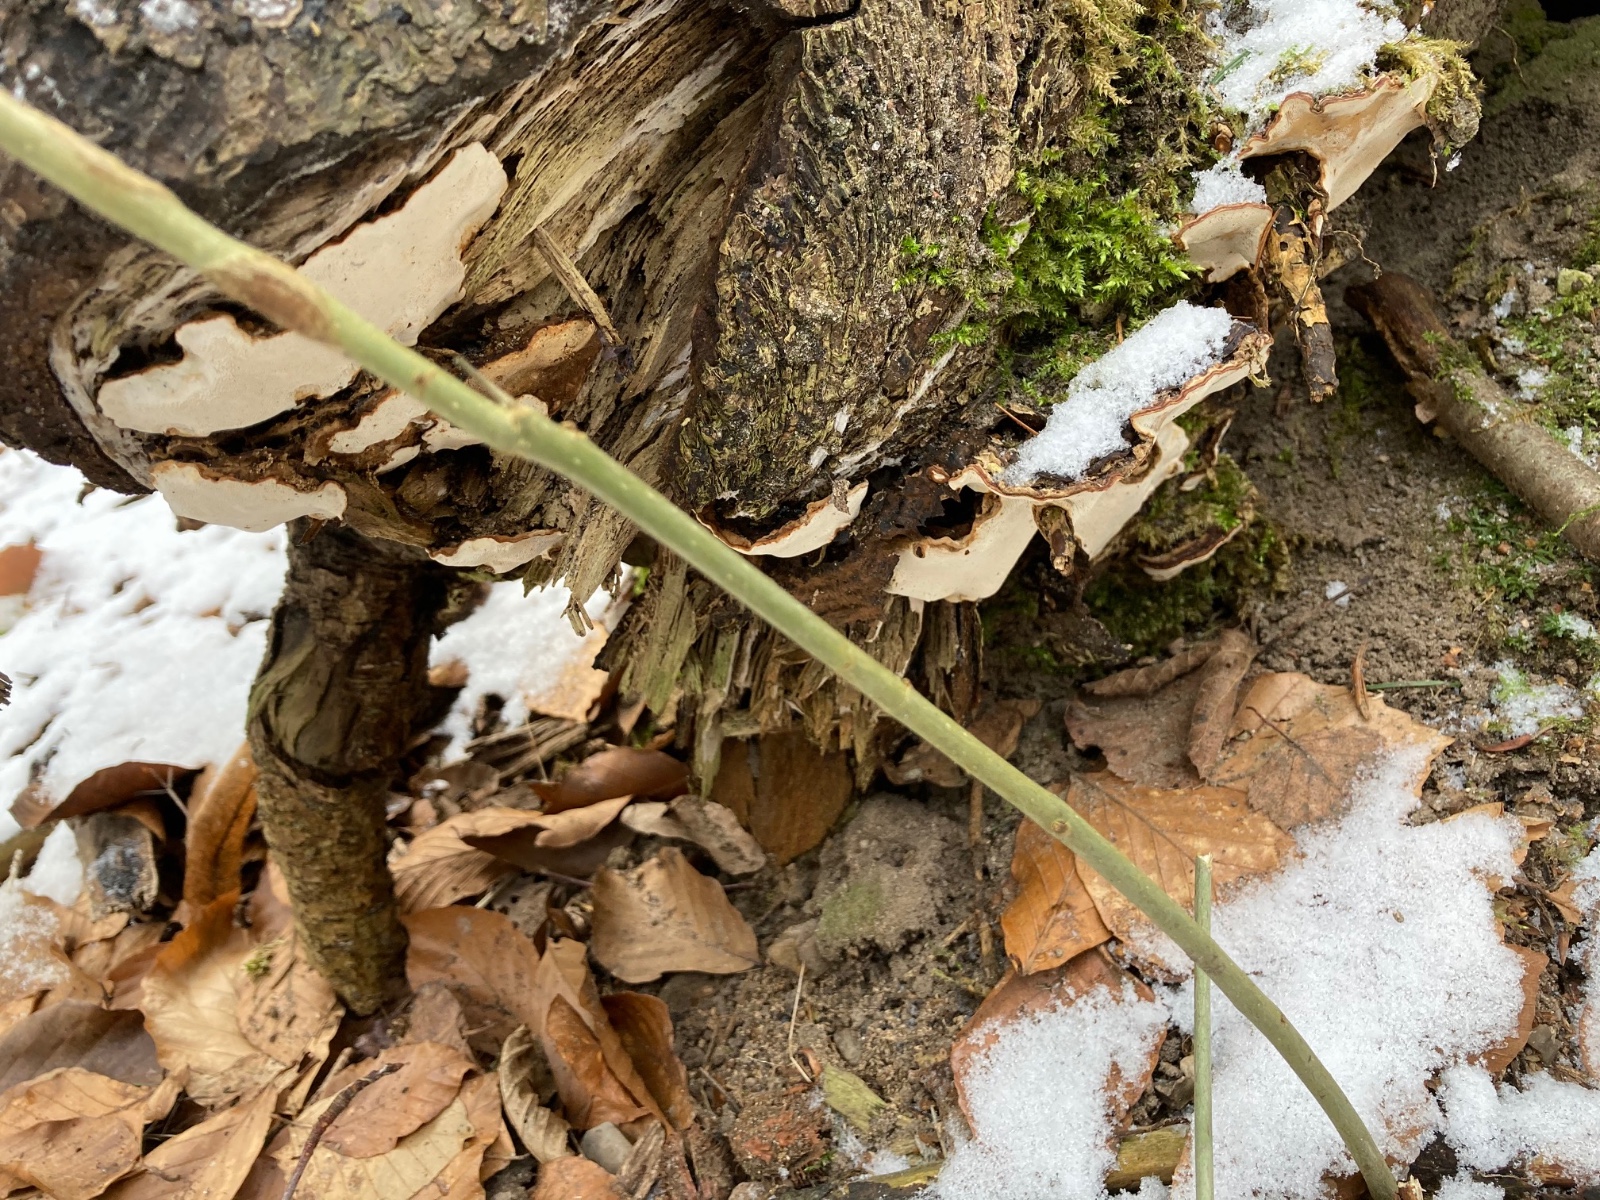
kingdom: Fungi
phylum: Basidiomycota
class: Agaricomycetes
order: Russulales
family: Bondarzewiaceae
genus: Heterobasidion
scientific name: Heterobasidion annosum
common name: almindelig rodfordærver
